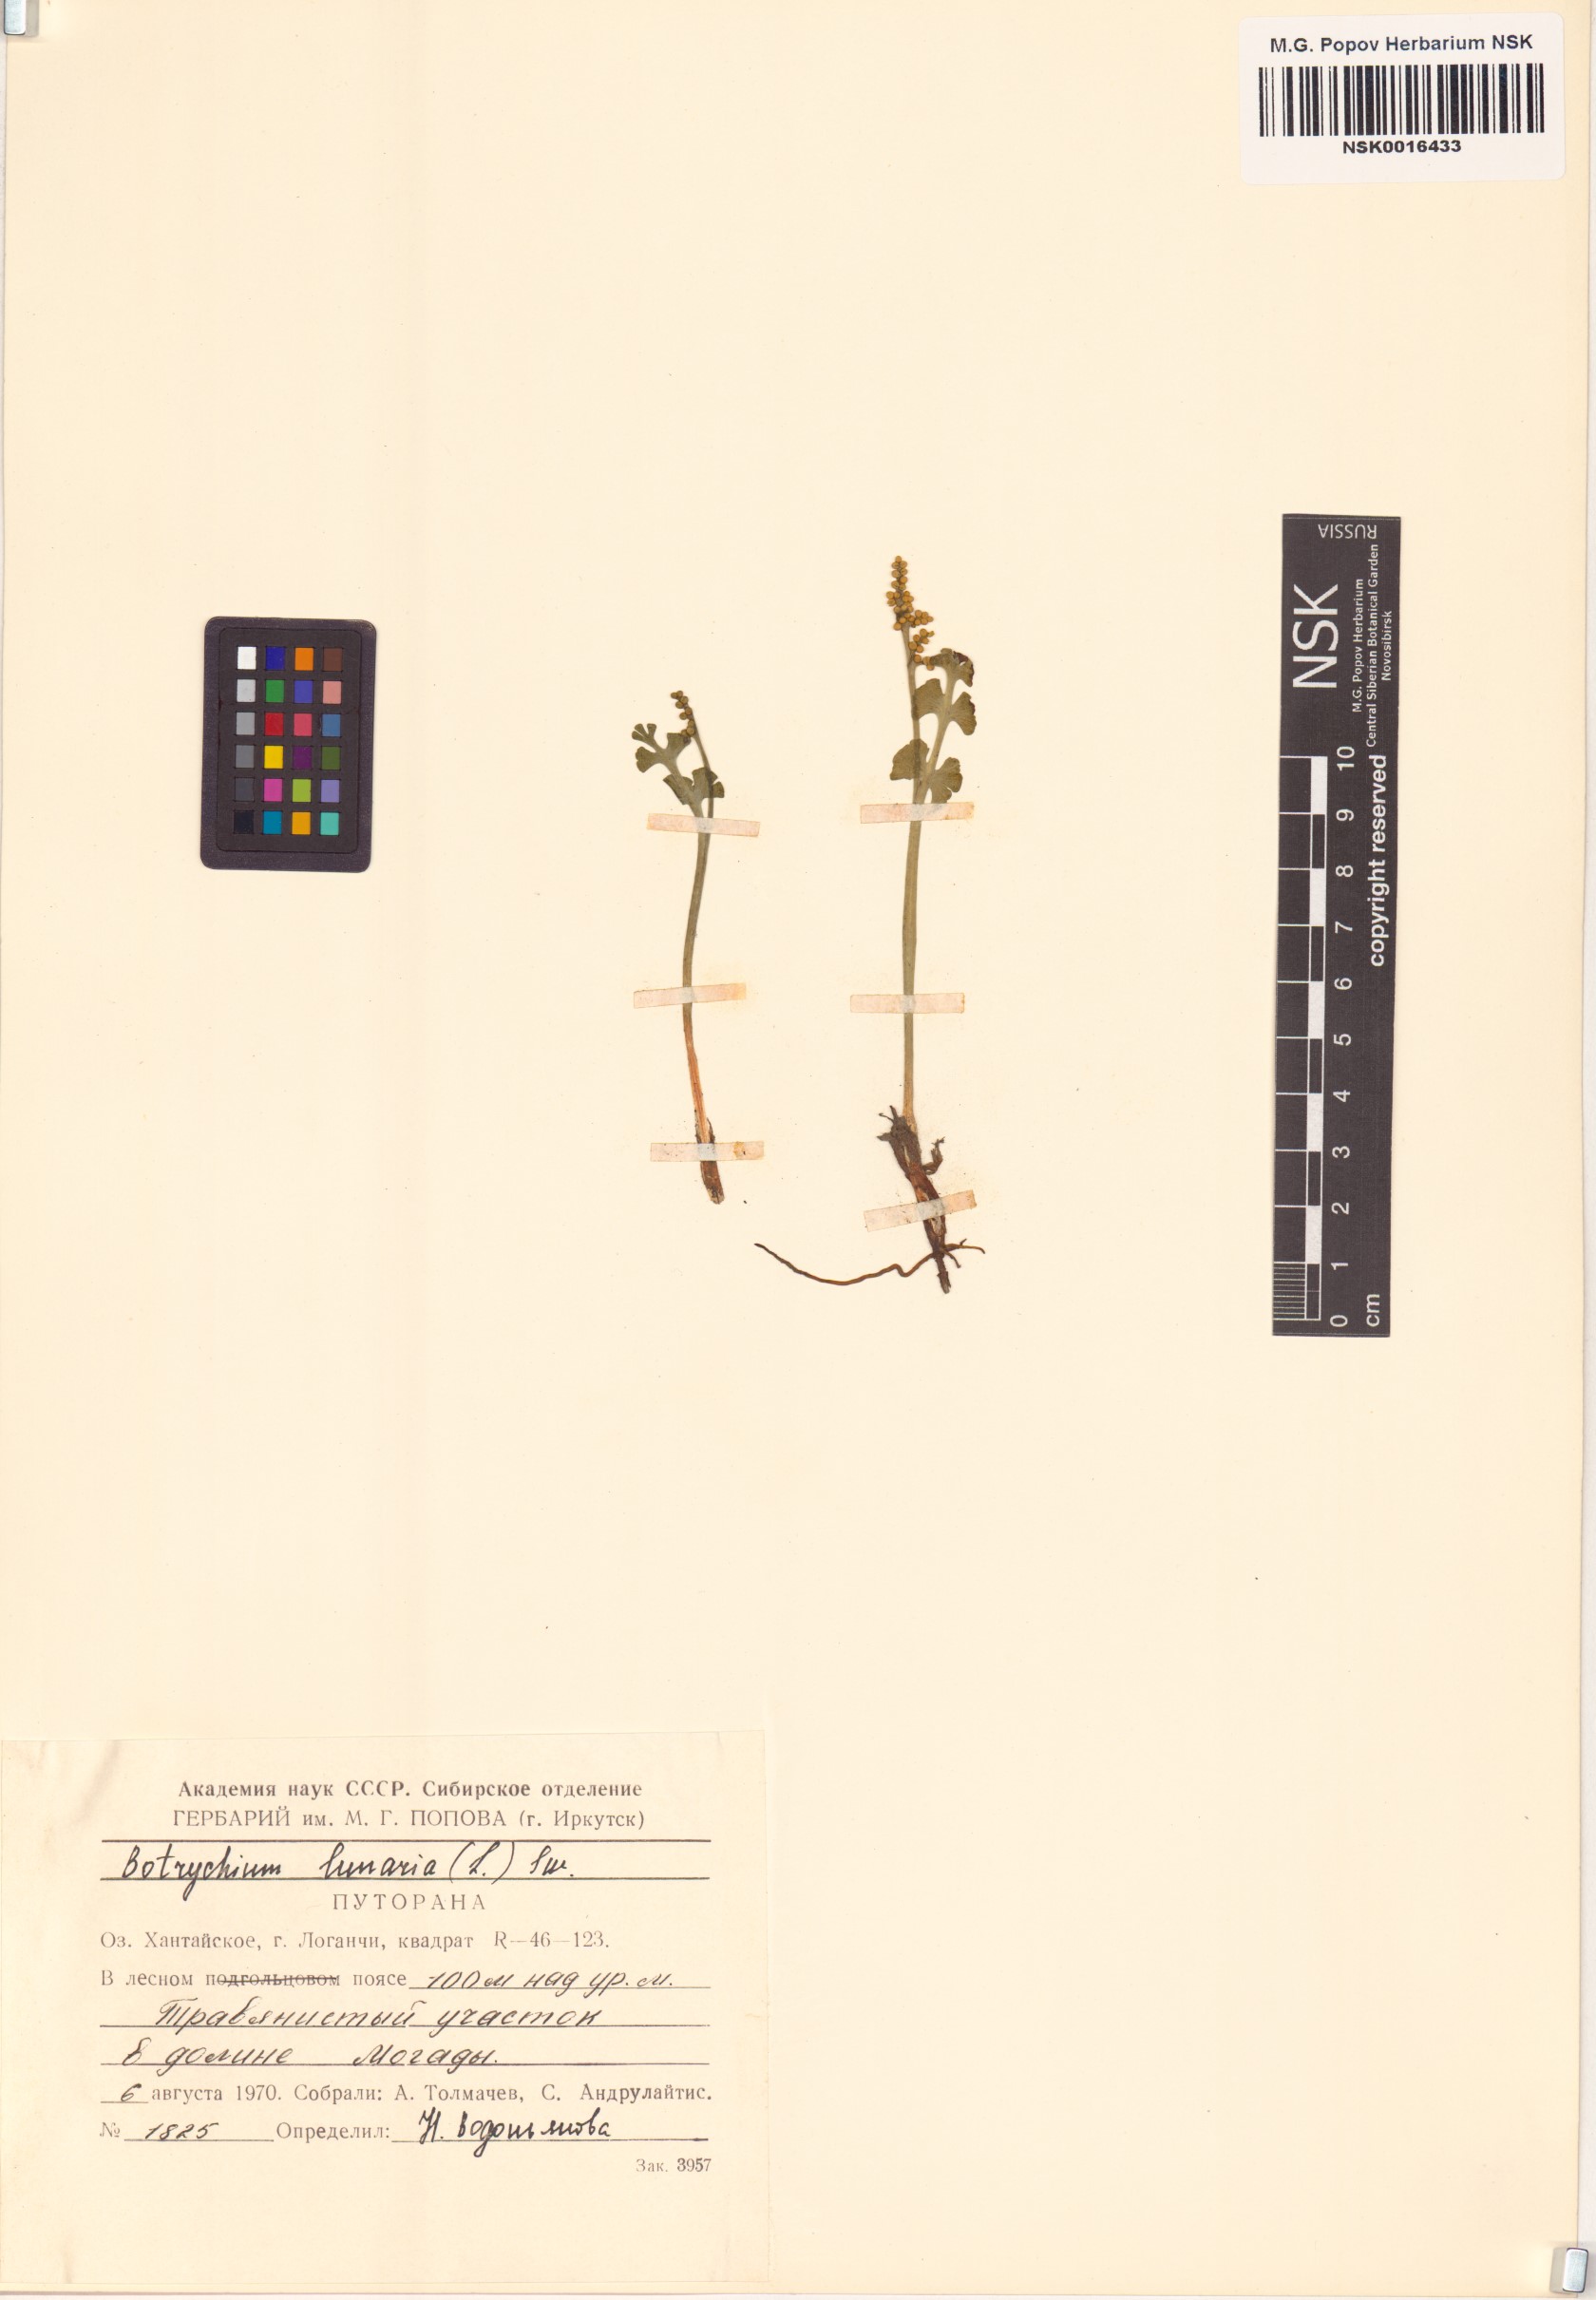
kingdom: Plantae
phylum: Tracheophyta
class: Polypodiopsida
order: Ophioglossales
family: Ophioglossaceae
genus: Botrychium
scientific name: Botrychium lunaria
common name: Moonwort
